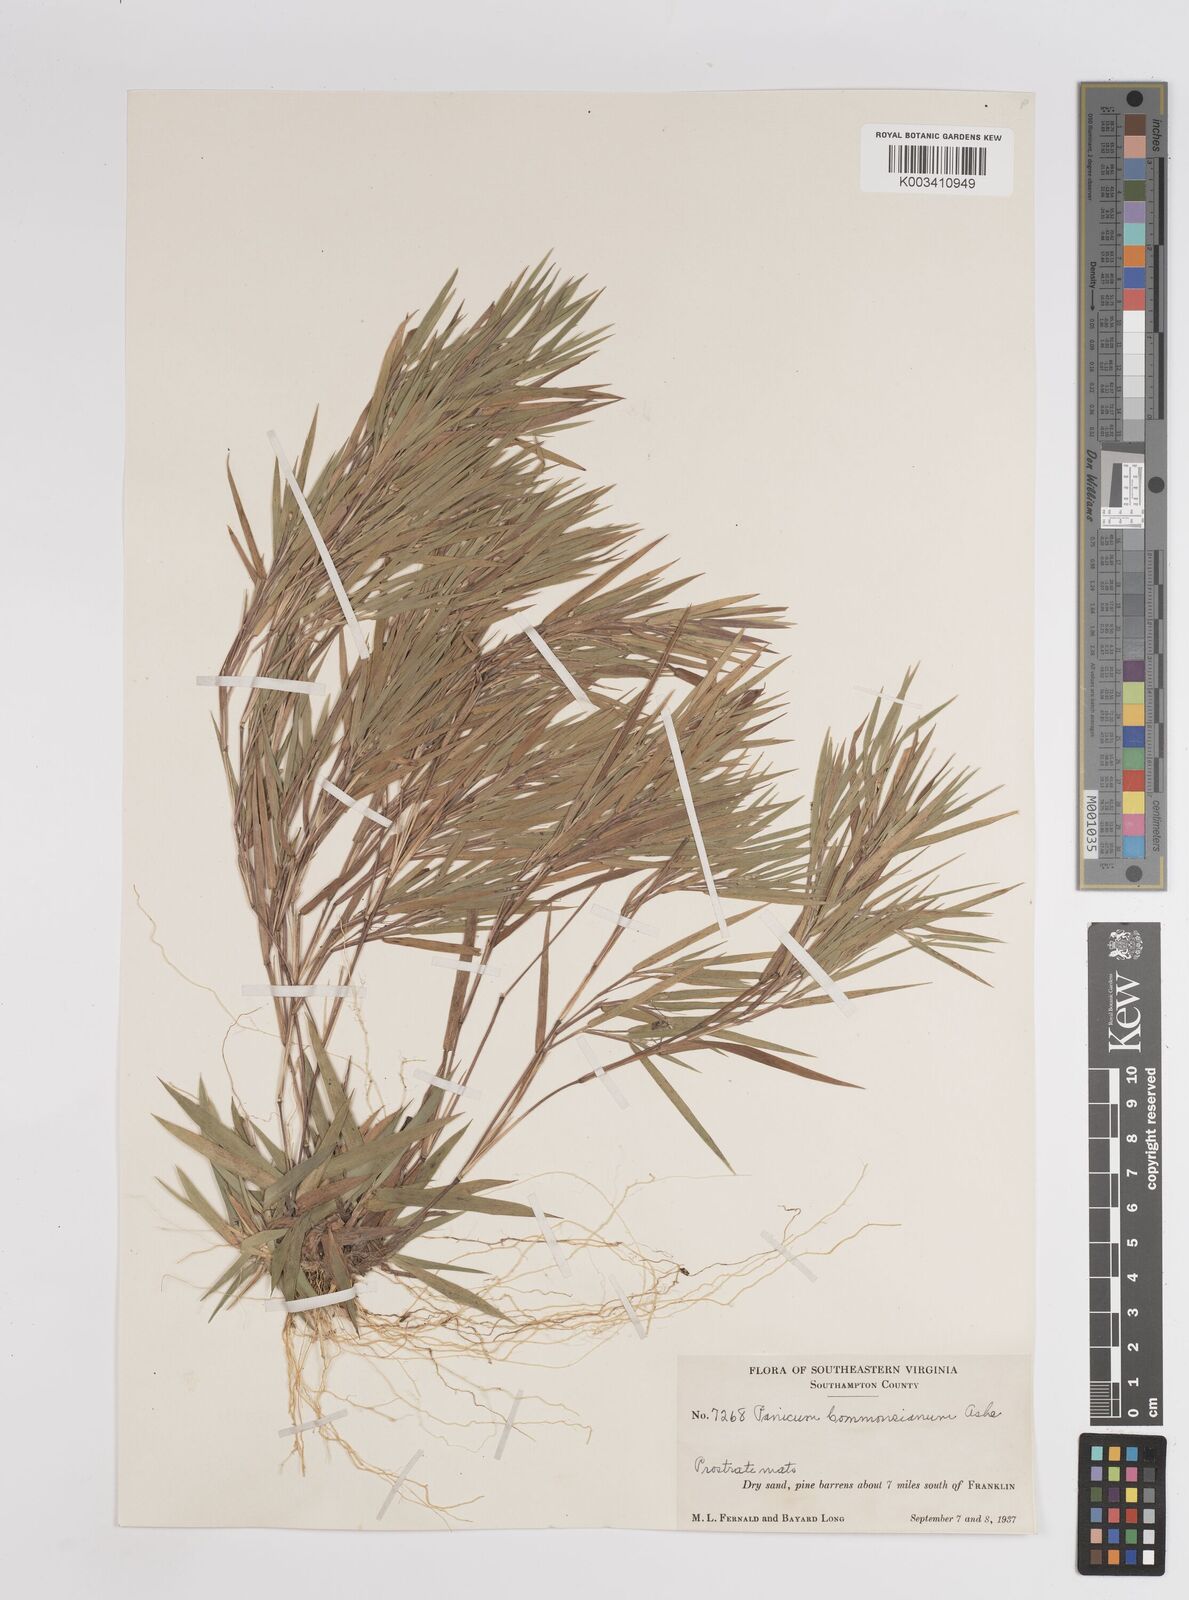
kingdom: Plantae
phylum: Tracheophyta
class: Liliopsida
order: Poales
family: Poaceae
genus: Dichanthelium
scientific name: Dichanthelium commonsianum
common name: Commons' panicgrass
